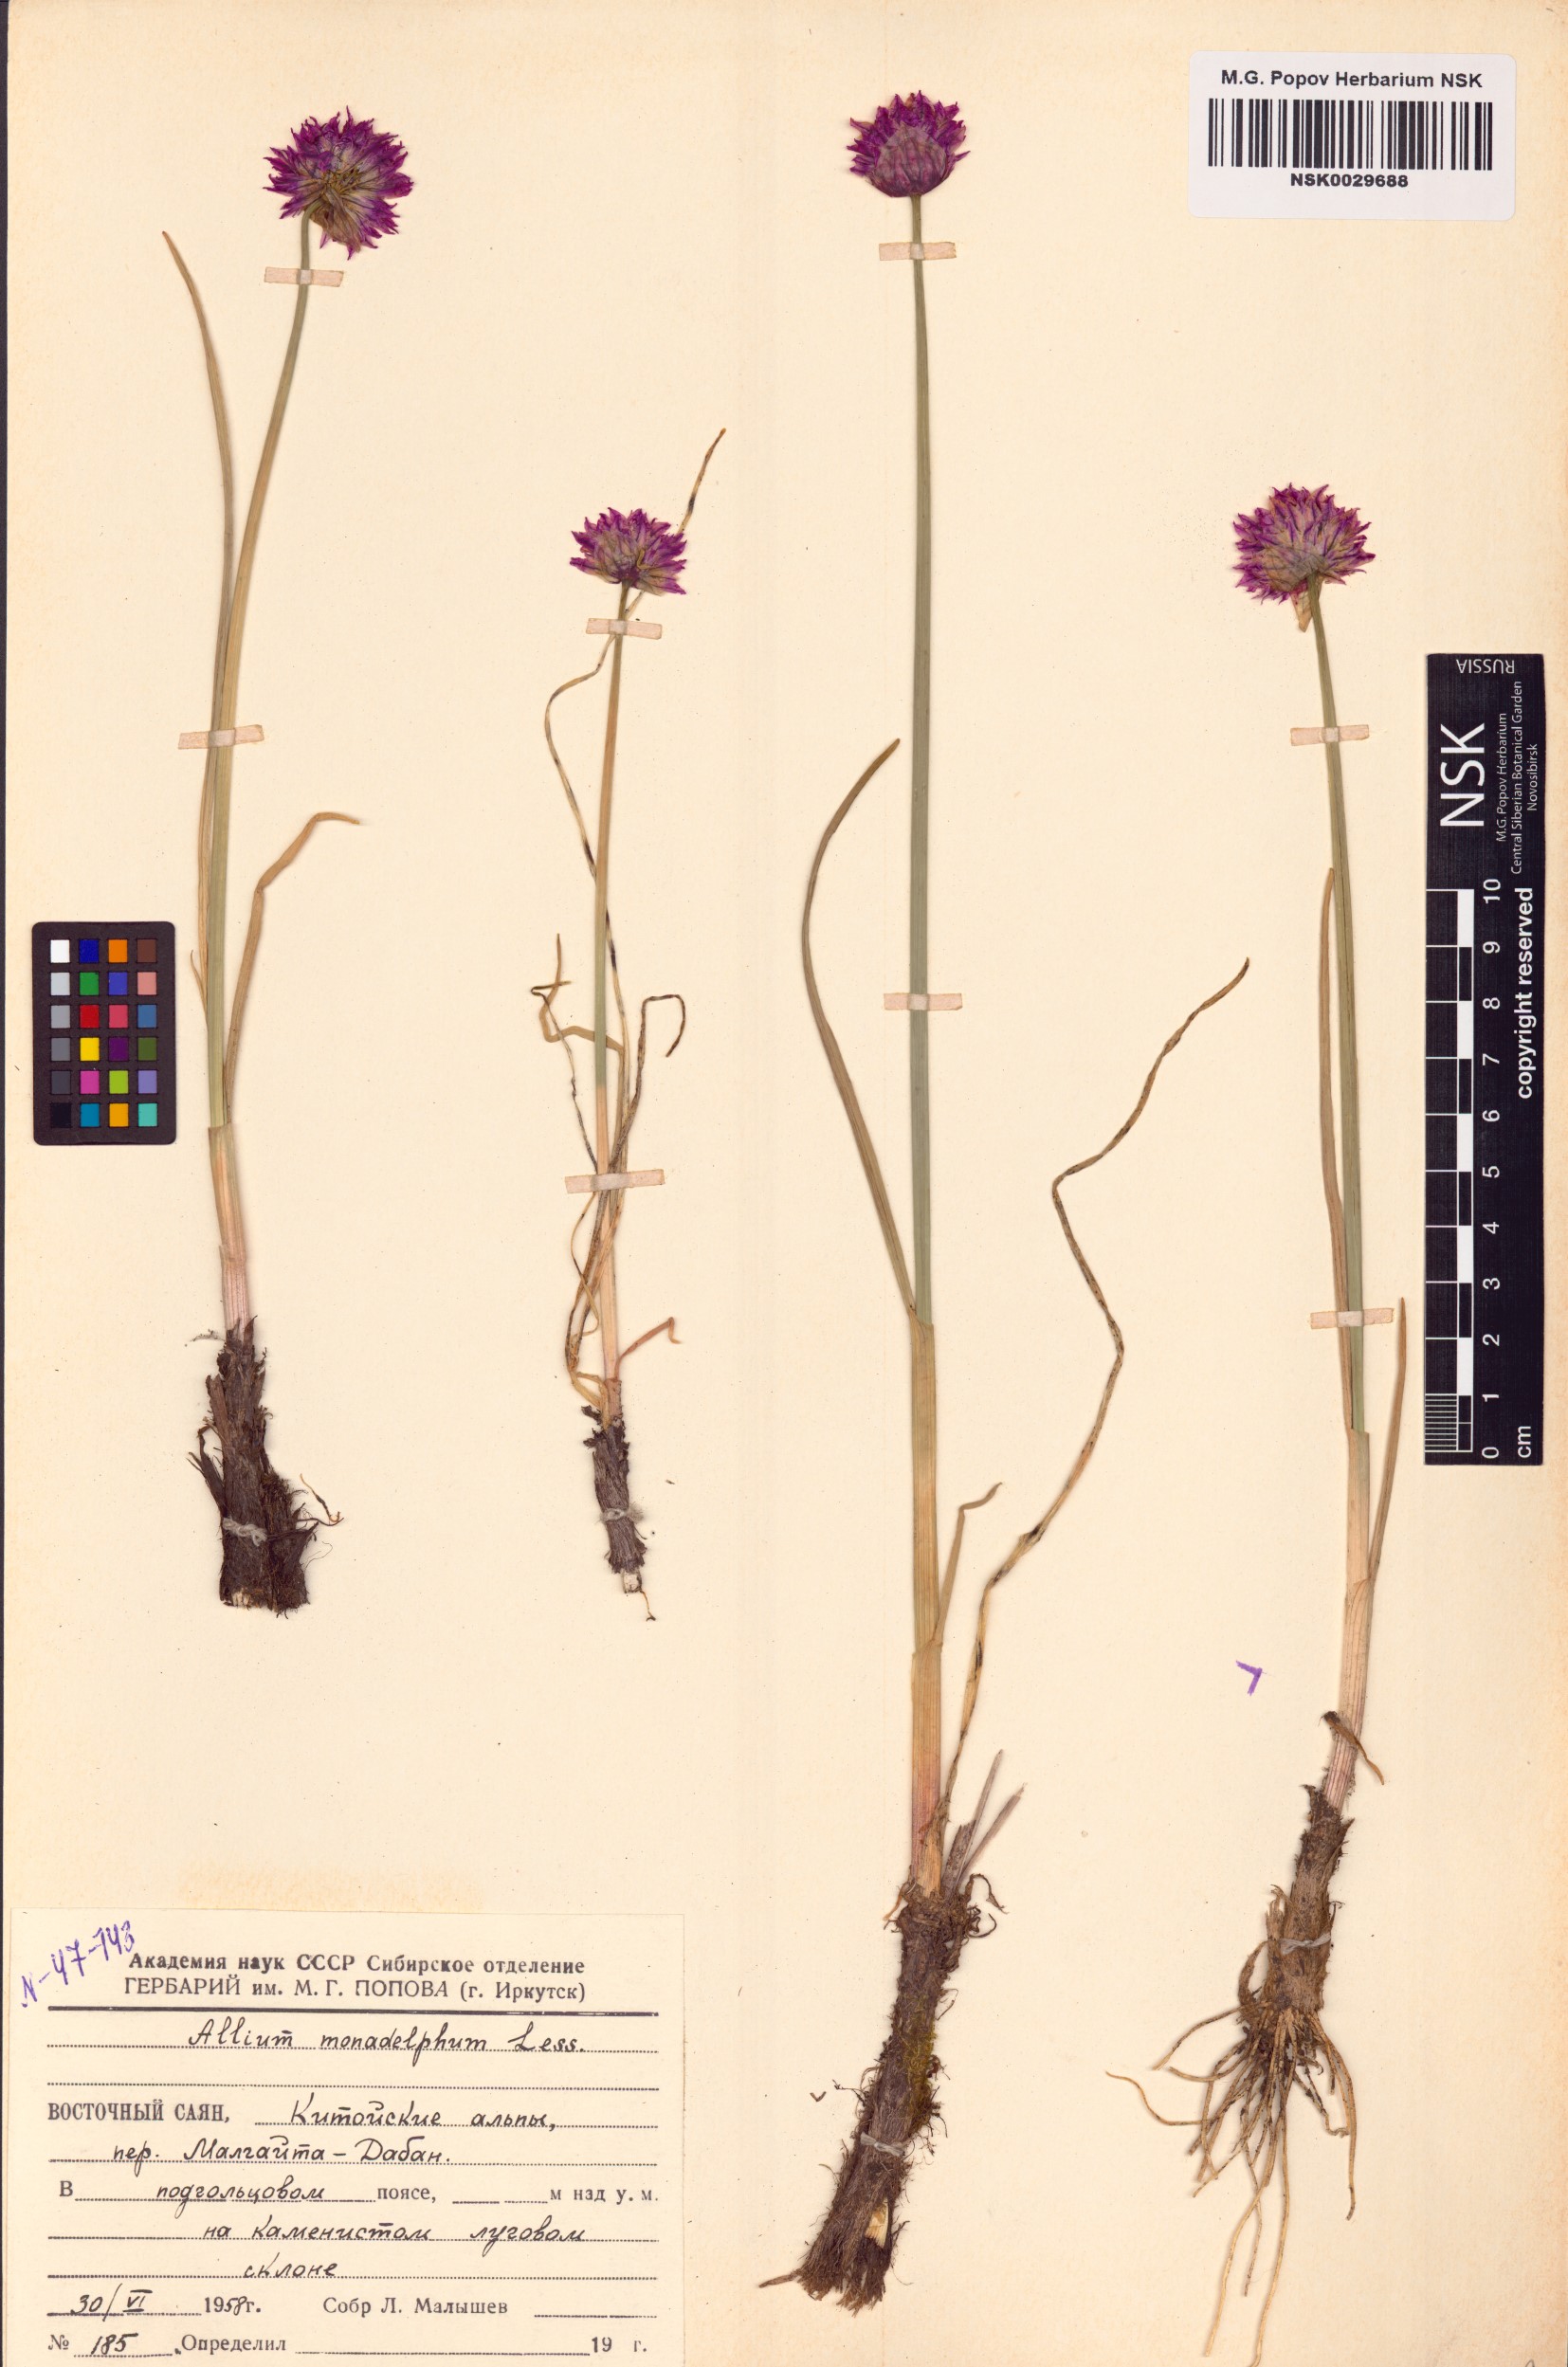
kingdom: Plantae
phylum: Tracheophyta
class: Liliopsida
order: Asparagales
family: Amaryllidaceae
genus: Allium
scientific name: Allium atrosanguineum
